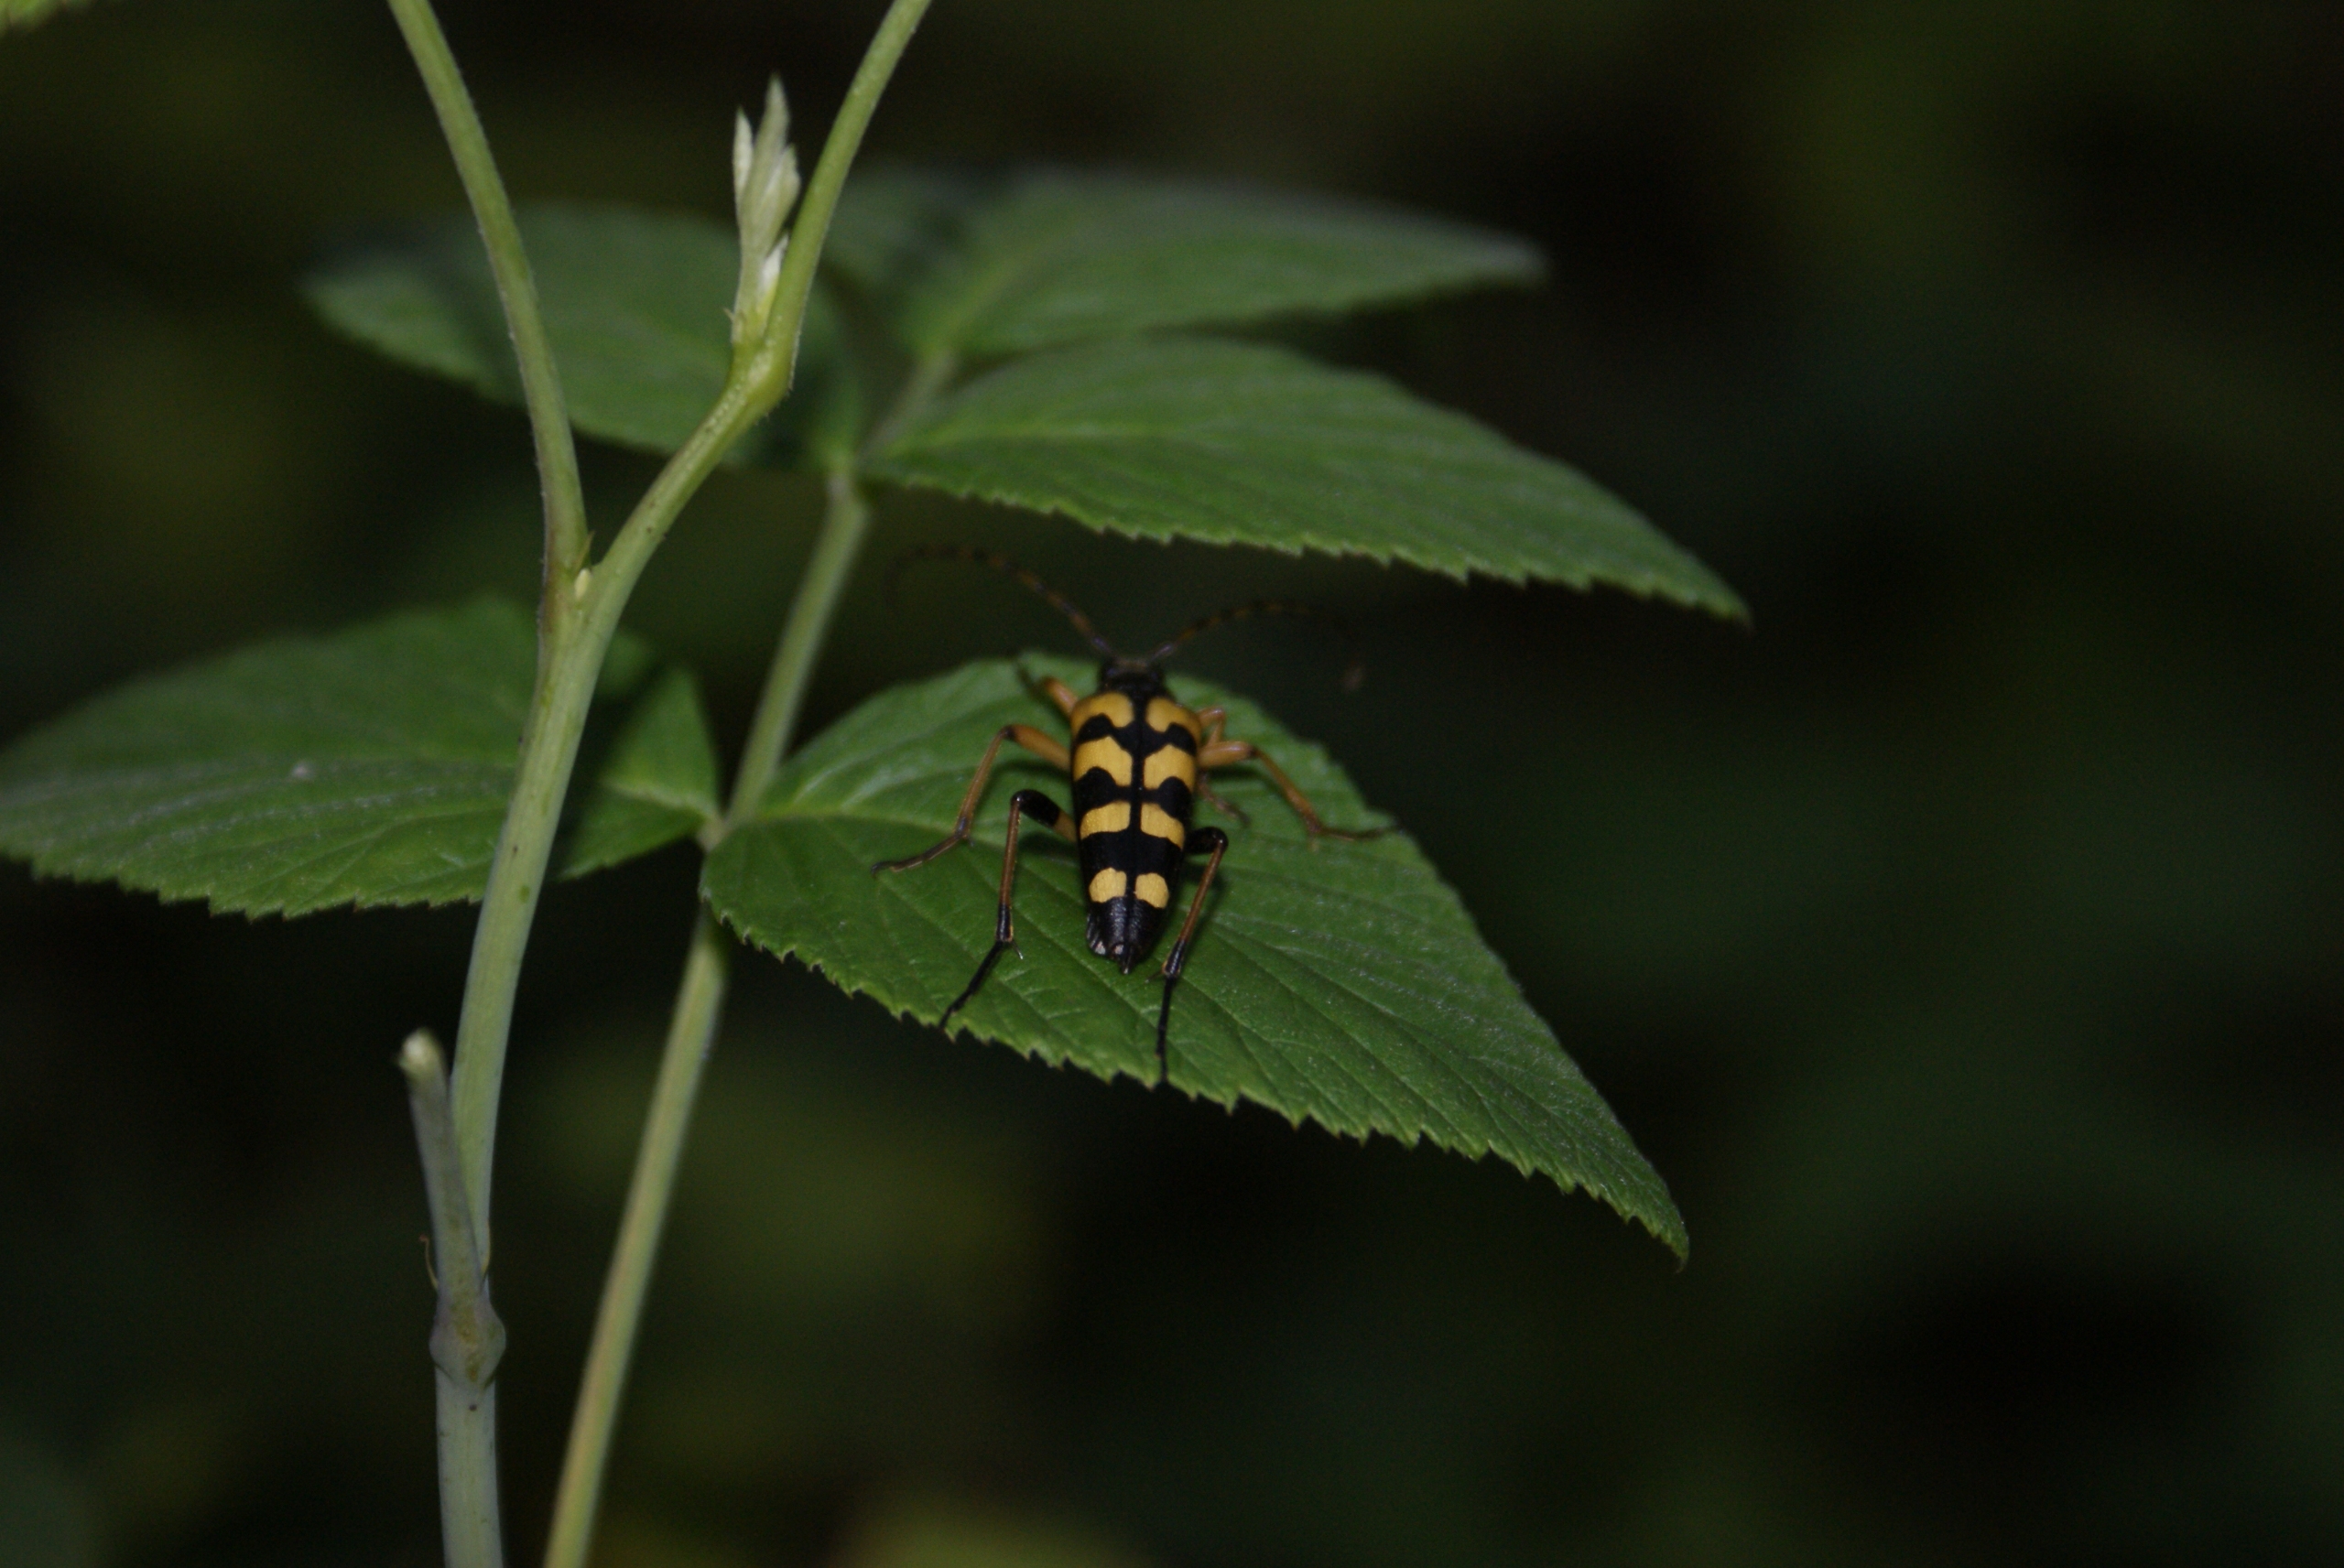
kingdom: Animalia
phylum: Arthropoda
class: Insecta
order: Coleoptera
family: Cerambycidae
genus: Rutpela
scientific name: Rutpela maculata
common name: Sydlig blomsterbuk
